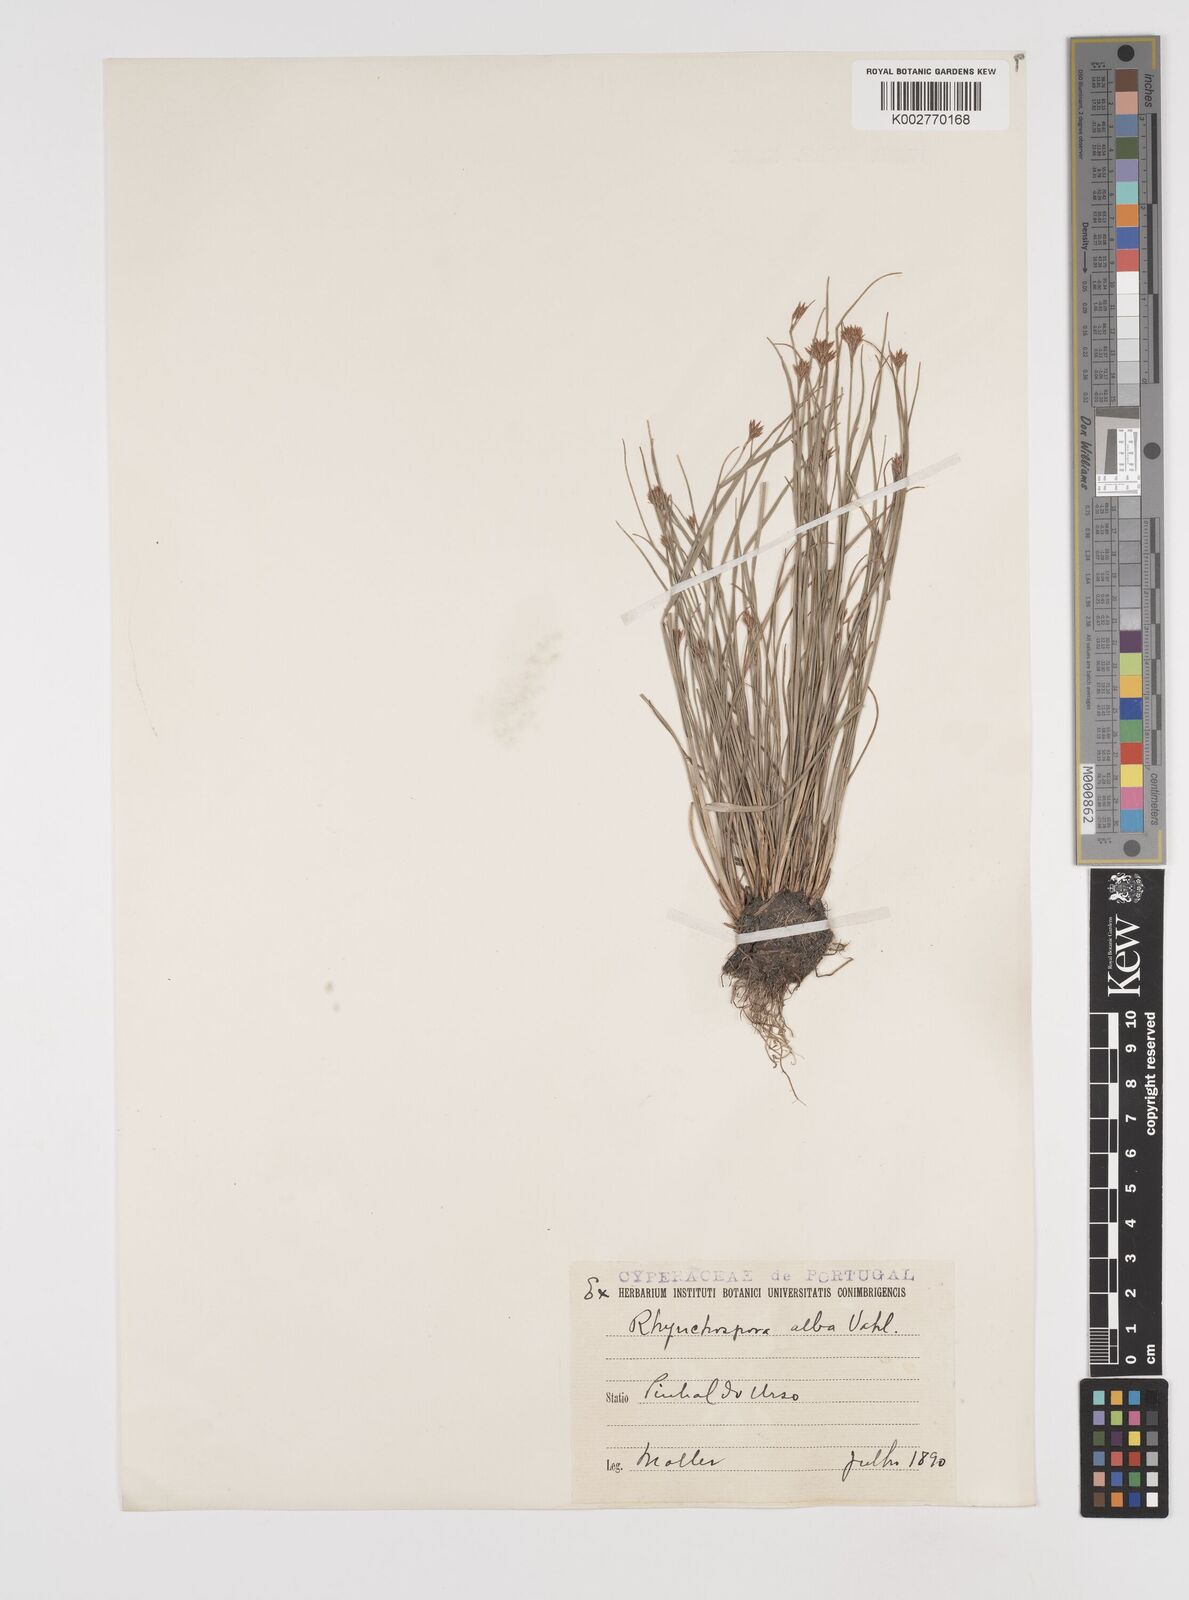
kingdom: Plantae
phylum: Tracheophyta
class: Liliopsida
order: Poales
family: Cyperaceae
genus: Rhynchospora
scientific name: Rhynchospora
